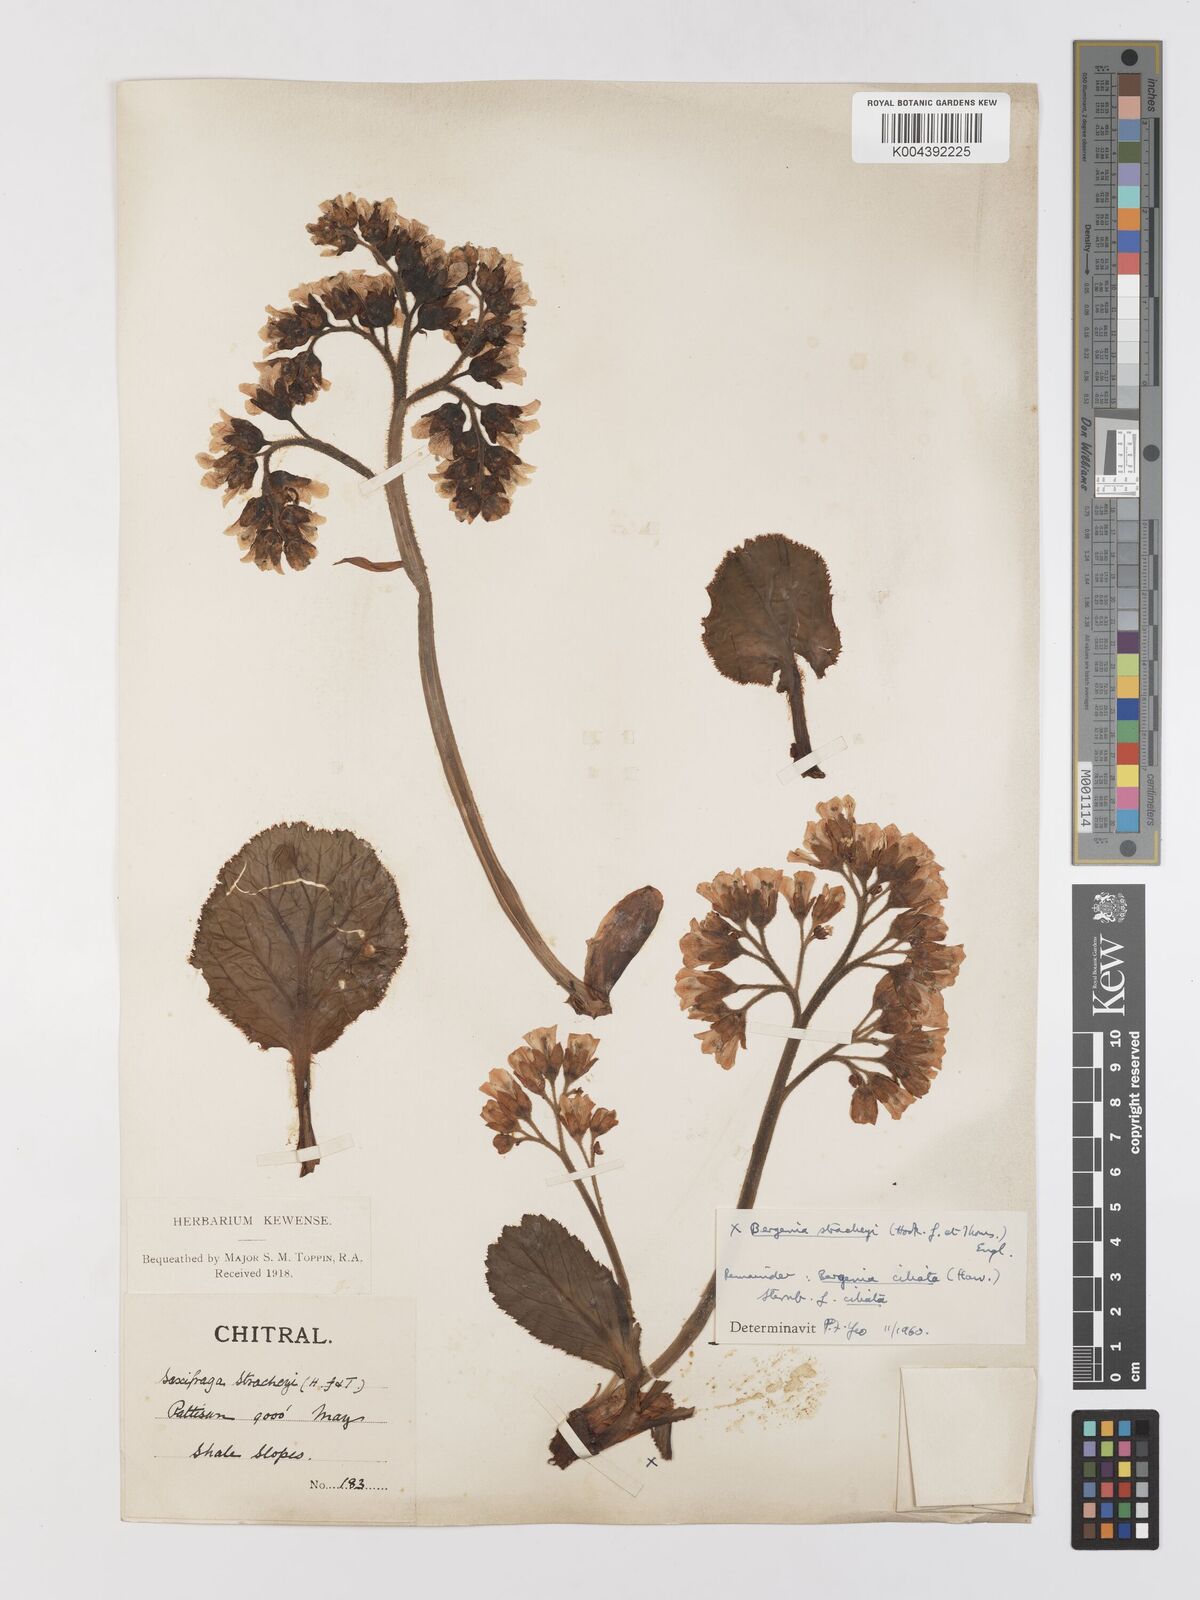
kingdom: Plantae
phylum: Tracheophyta
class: Magnoliopsida
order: Saxifragales
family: Saxifragaceae
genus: Bergenia
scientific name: Bergenia stracheyi
